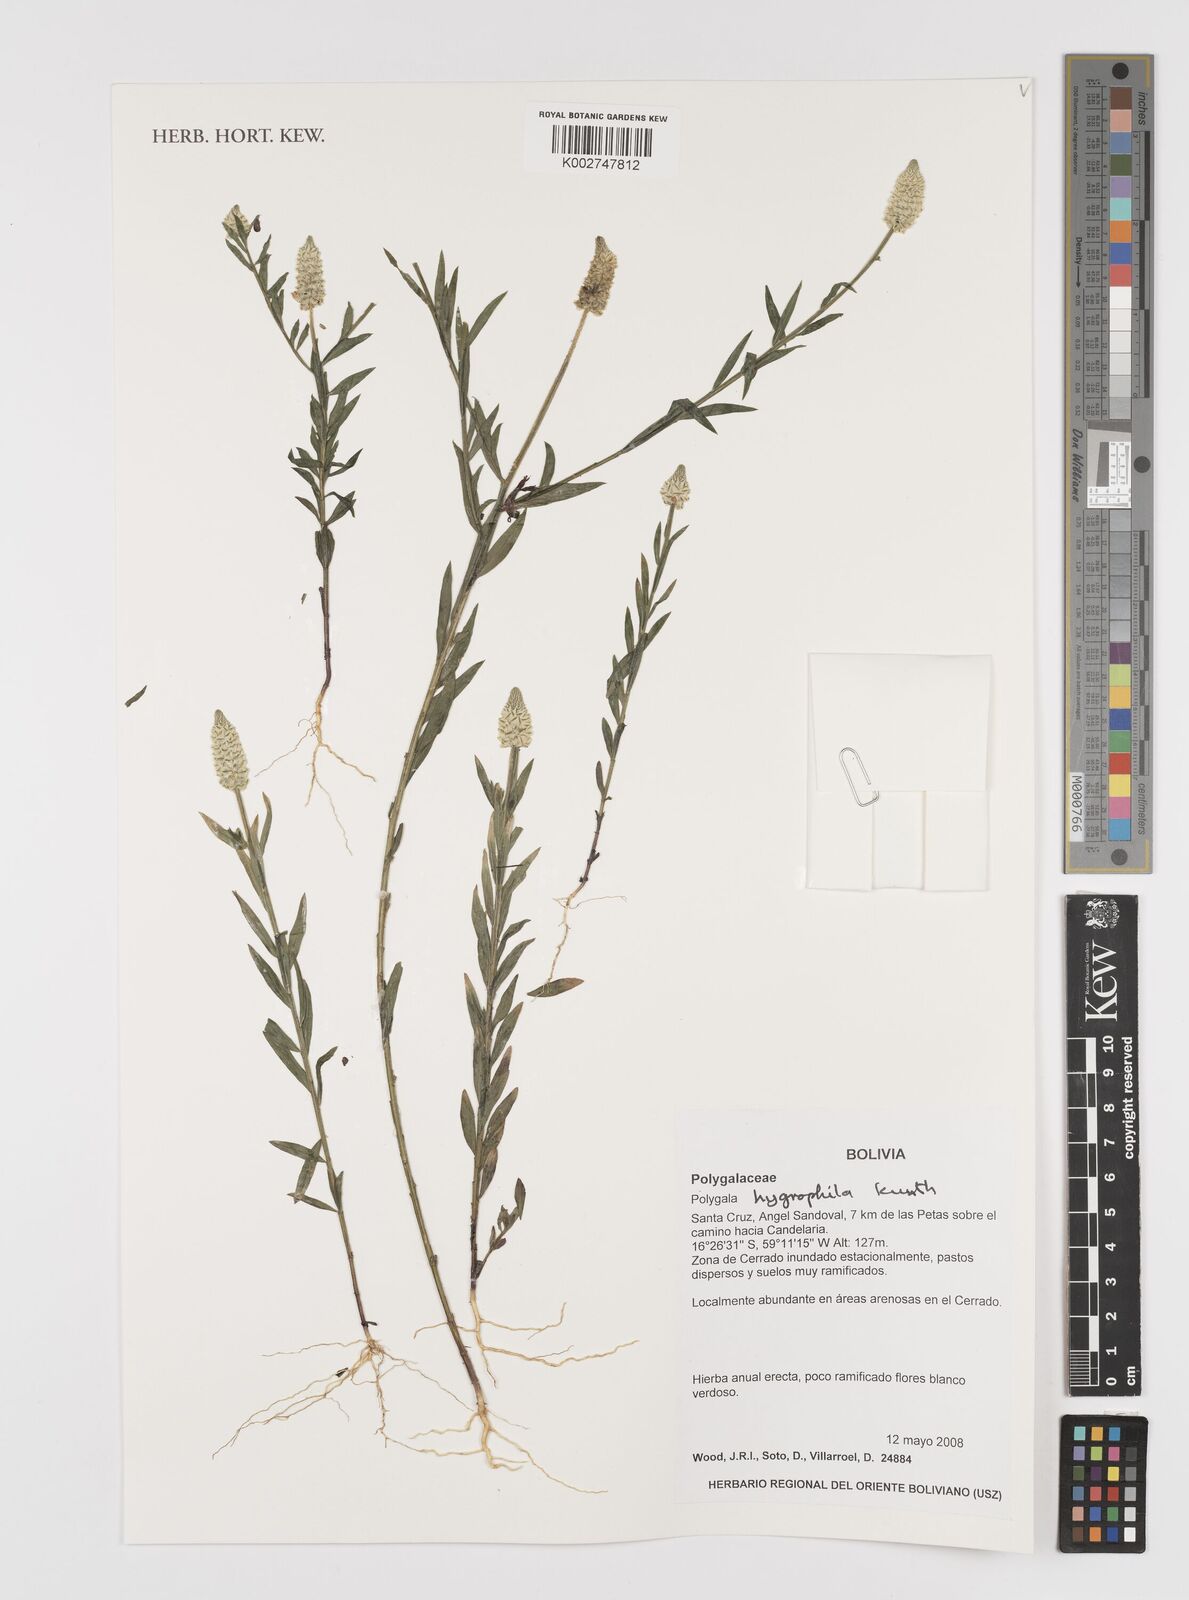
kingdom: Plantae
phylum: Tracheophyta
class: Magnoliopsida
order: Fabales
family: Polygalaceae
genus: Polygala
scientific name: Polygala hygrophila
